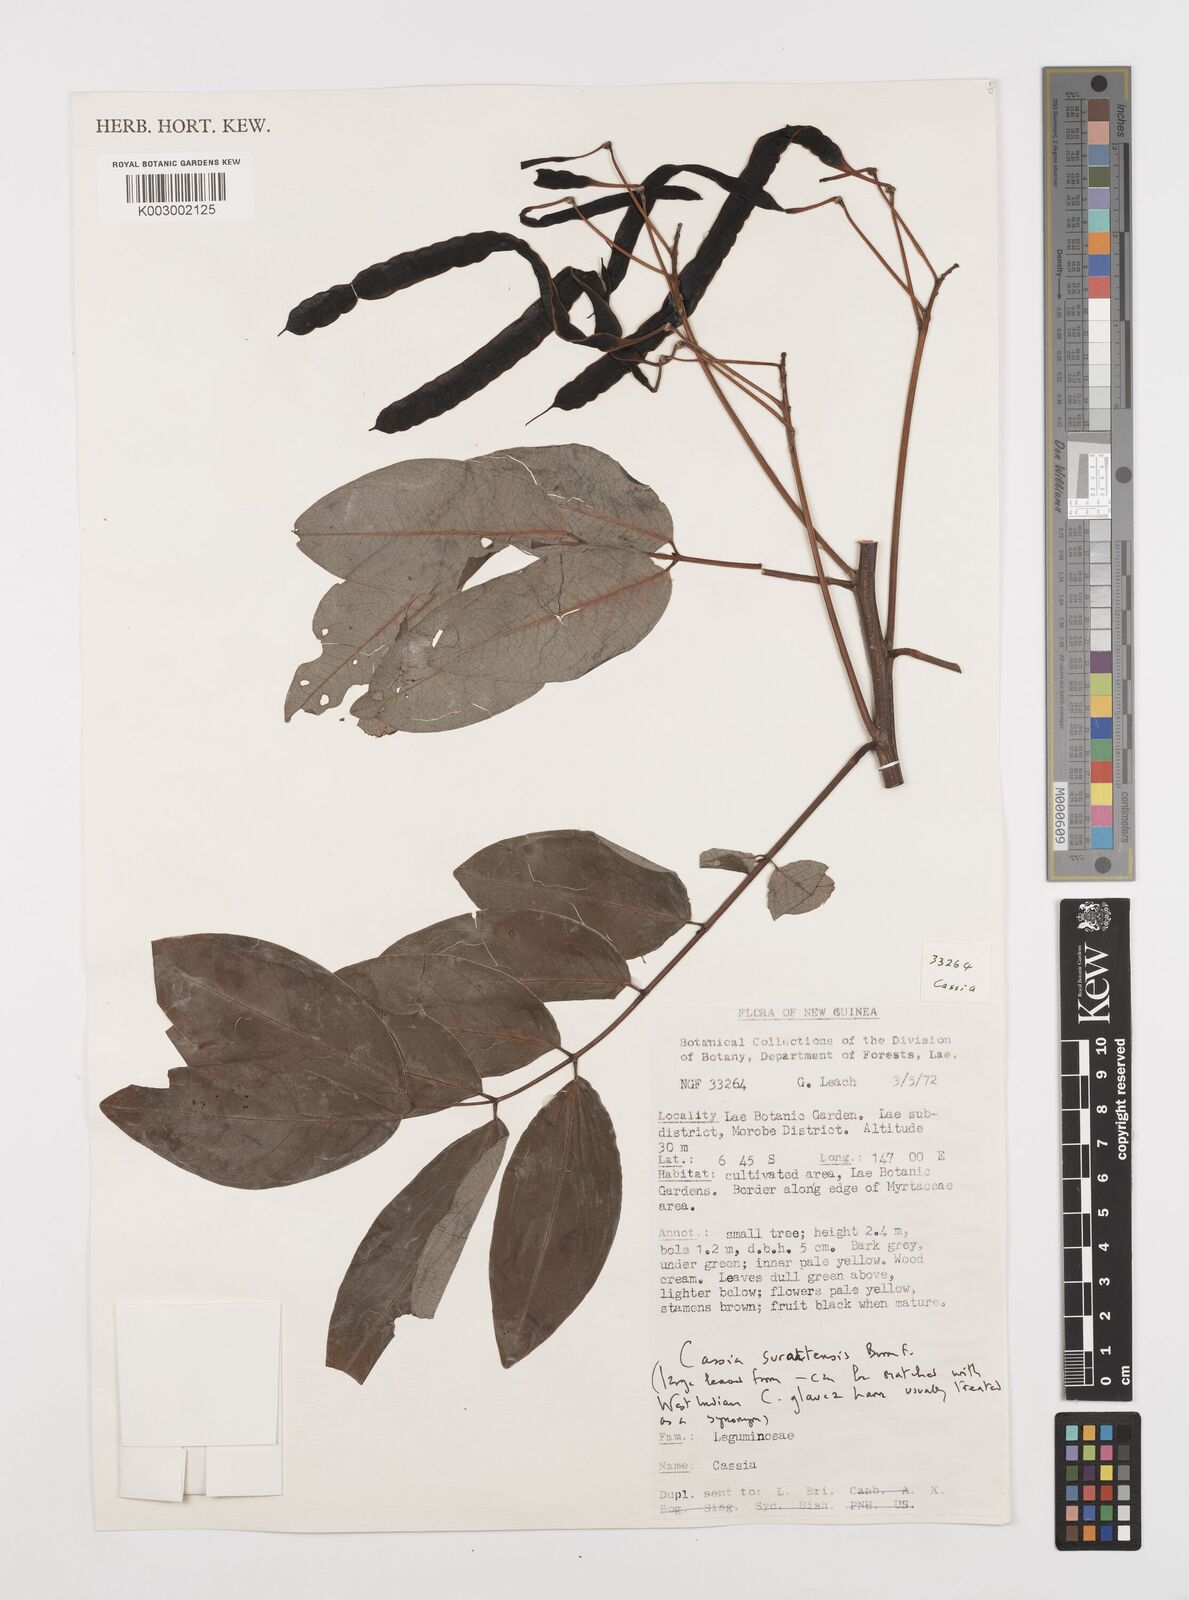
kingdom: Plantae
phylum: Tracheophyta
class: Magnoliopsida
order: Fabales
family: Fabaceae
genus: Senna
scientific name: Senna surattensis
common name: Glossy shower
